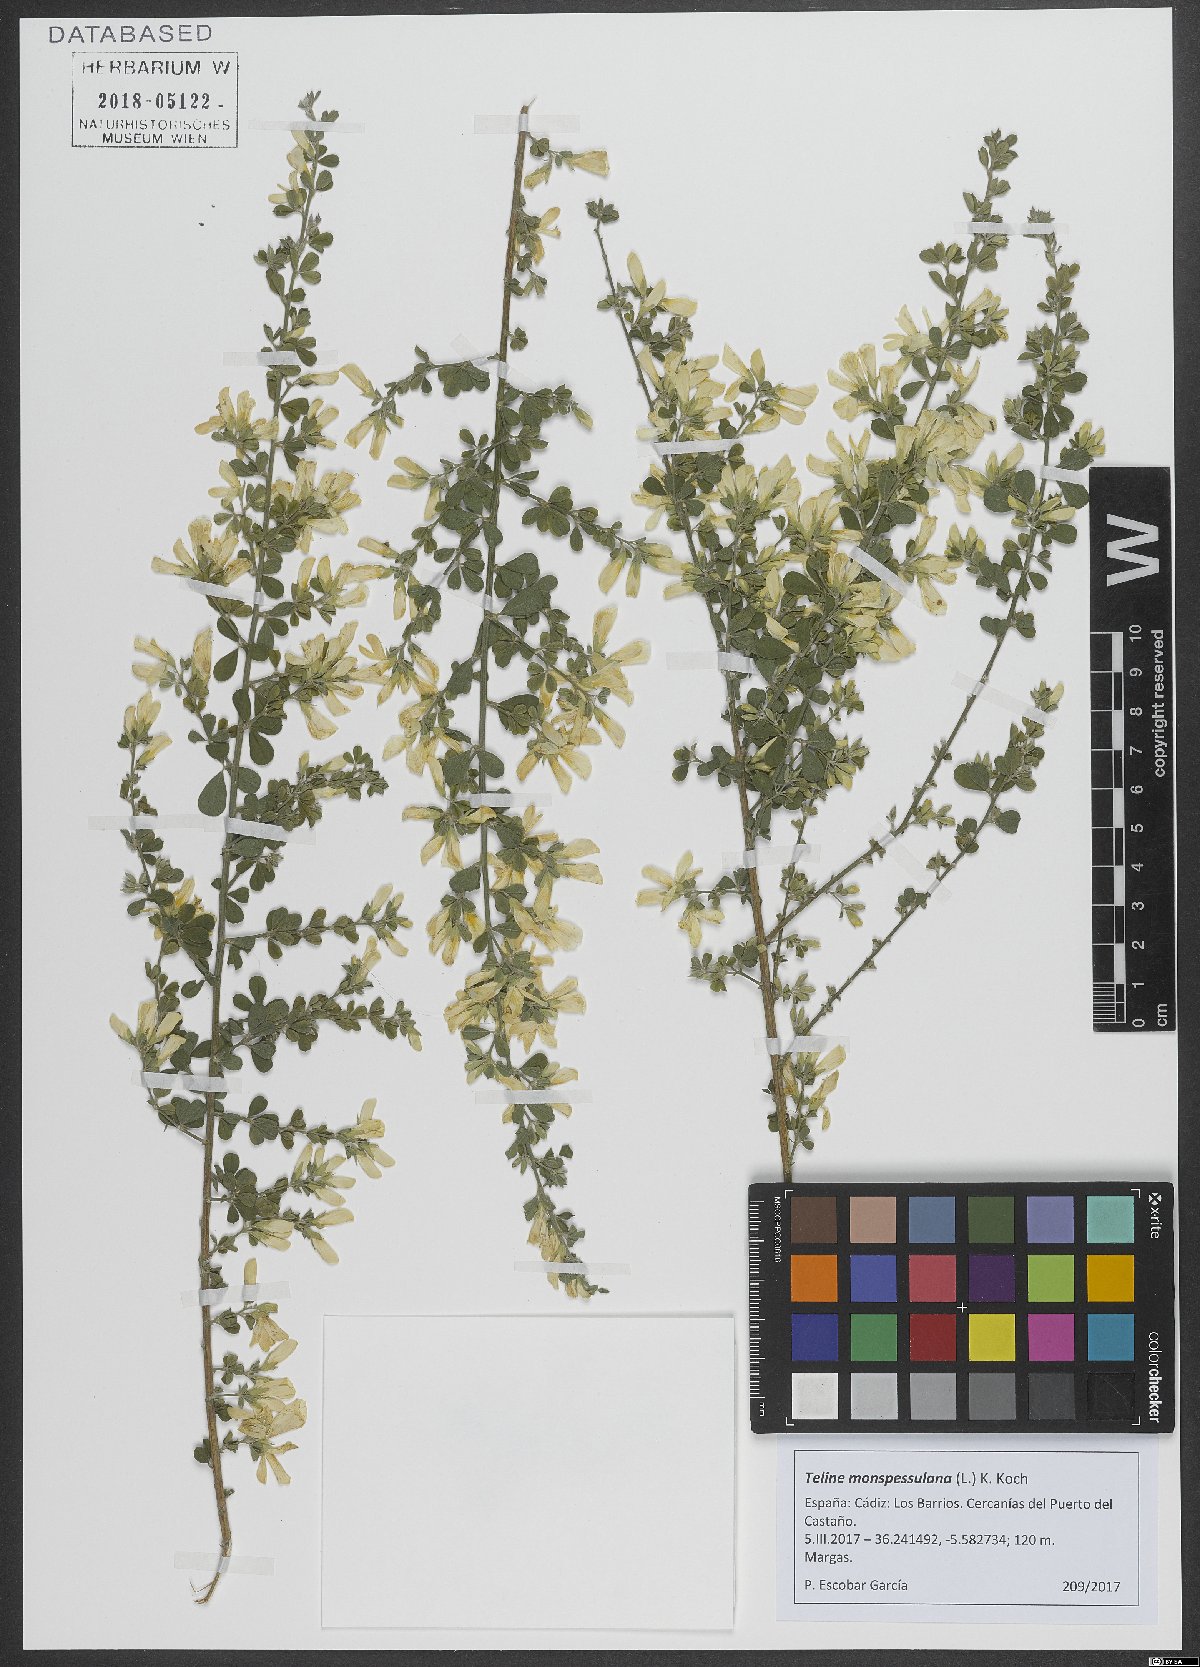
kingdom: Plantae
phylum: Tracheophyta
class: Magnoliopsida
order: Fabales
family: Fabaceae
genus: Genista
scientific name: Genista monspessulana
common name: Montpellier broom
